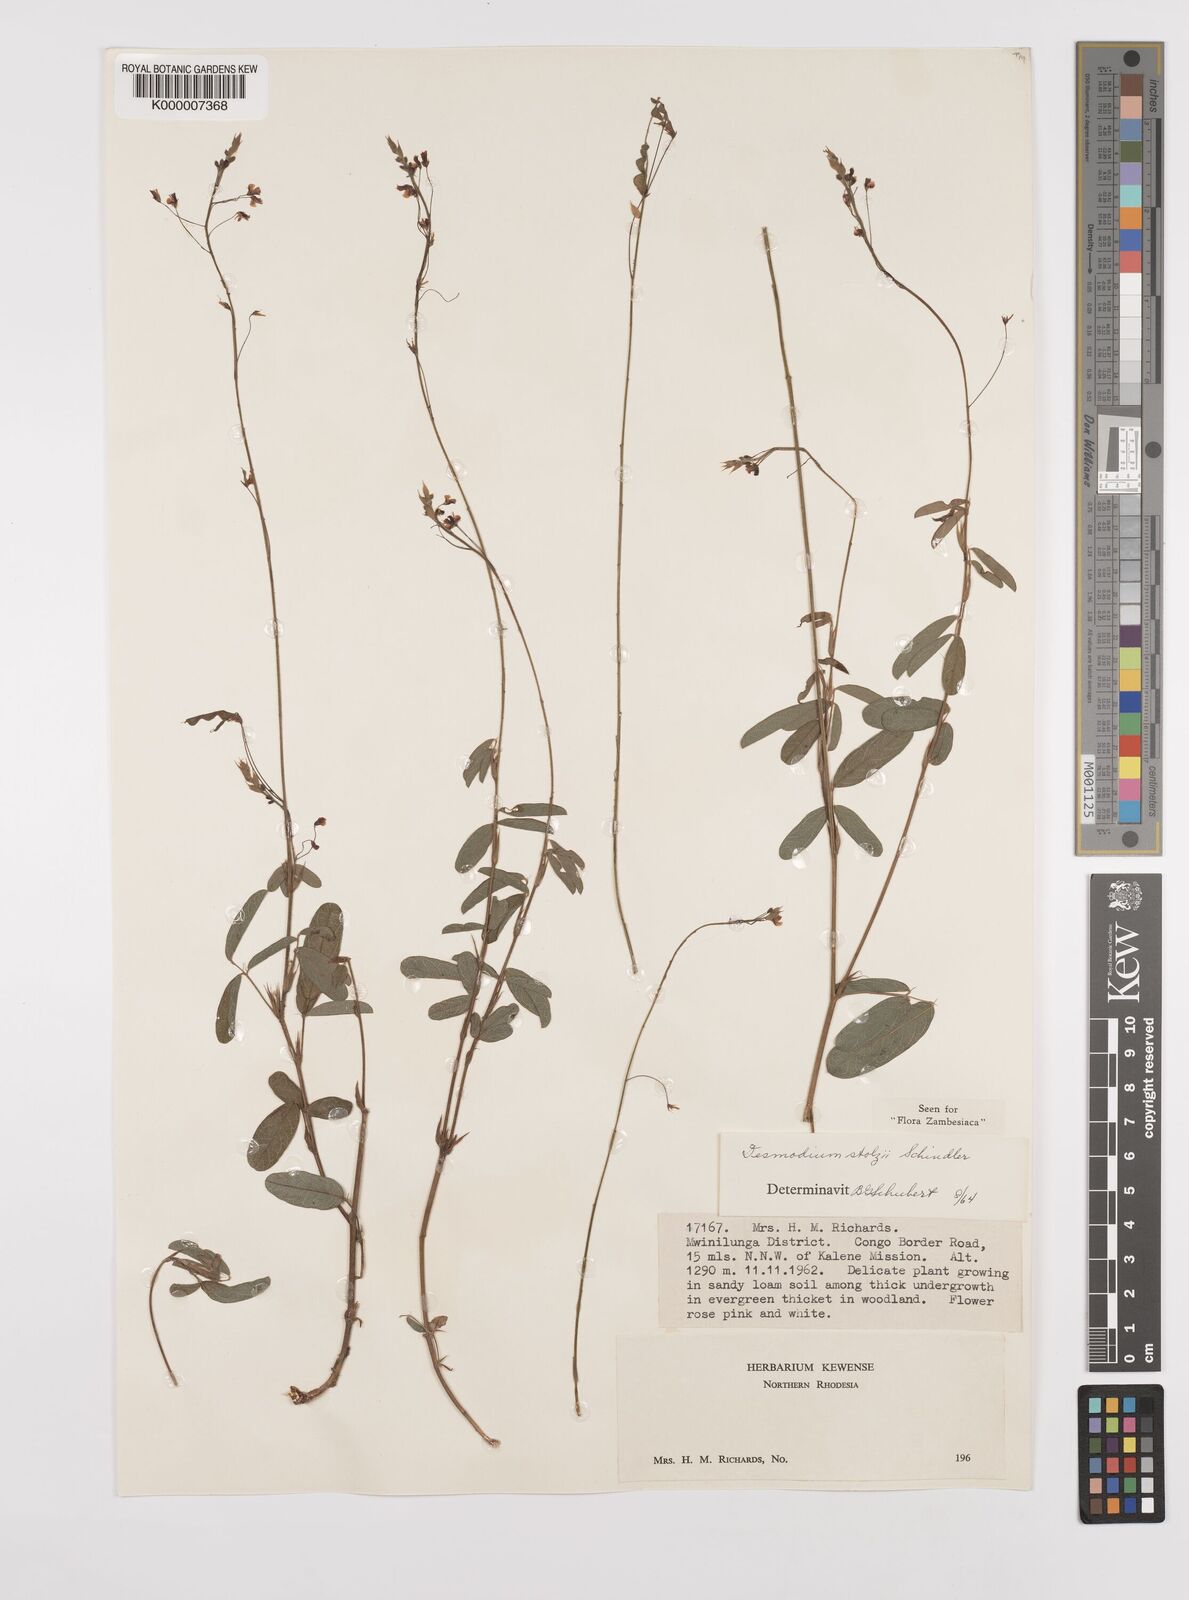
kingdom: Plantae
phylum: Tracheophyta
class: Magnoliopsida
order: Fabales
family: Fabaceae
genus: Grona
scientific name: Grona stolzii
